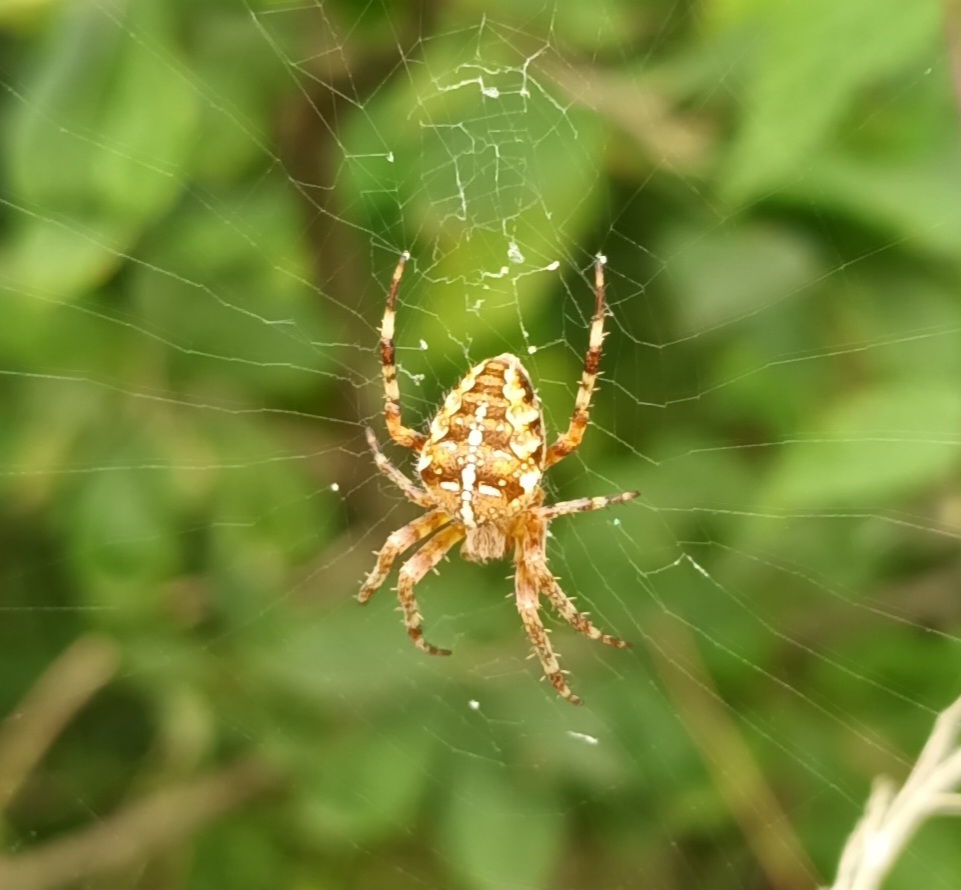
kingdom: Animalia
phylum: Arthropoda
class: Arachnida
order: Araneae
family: Araneidae
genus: Araneus
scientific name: Araneus diadematus
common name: Korsedderkop
